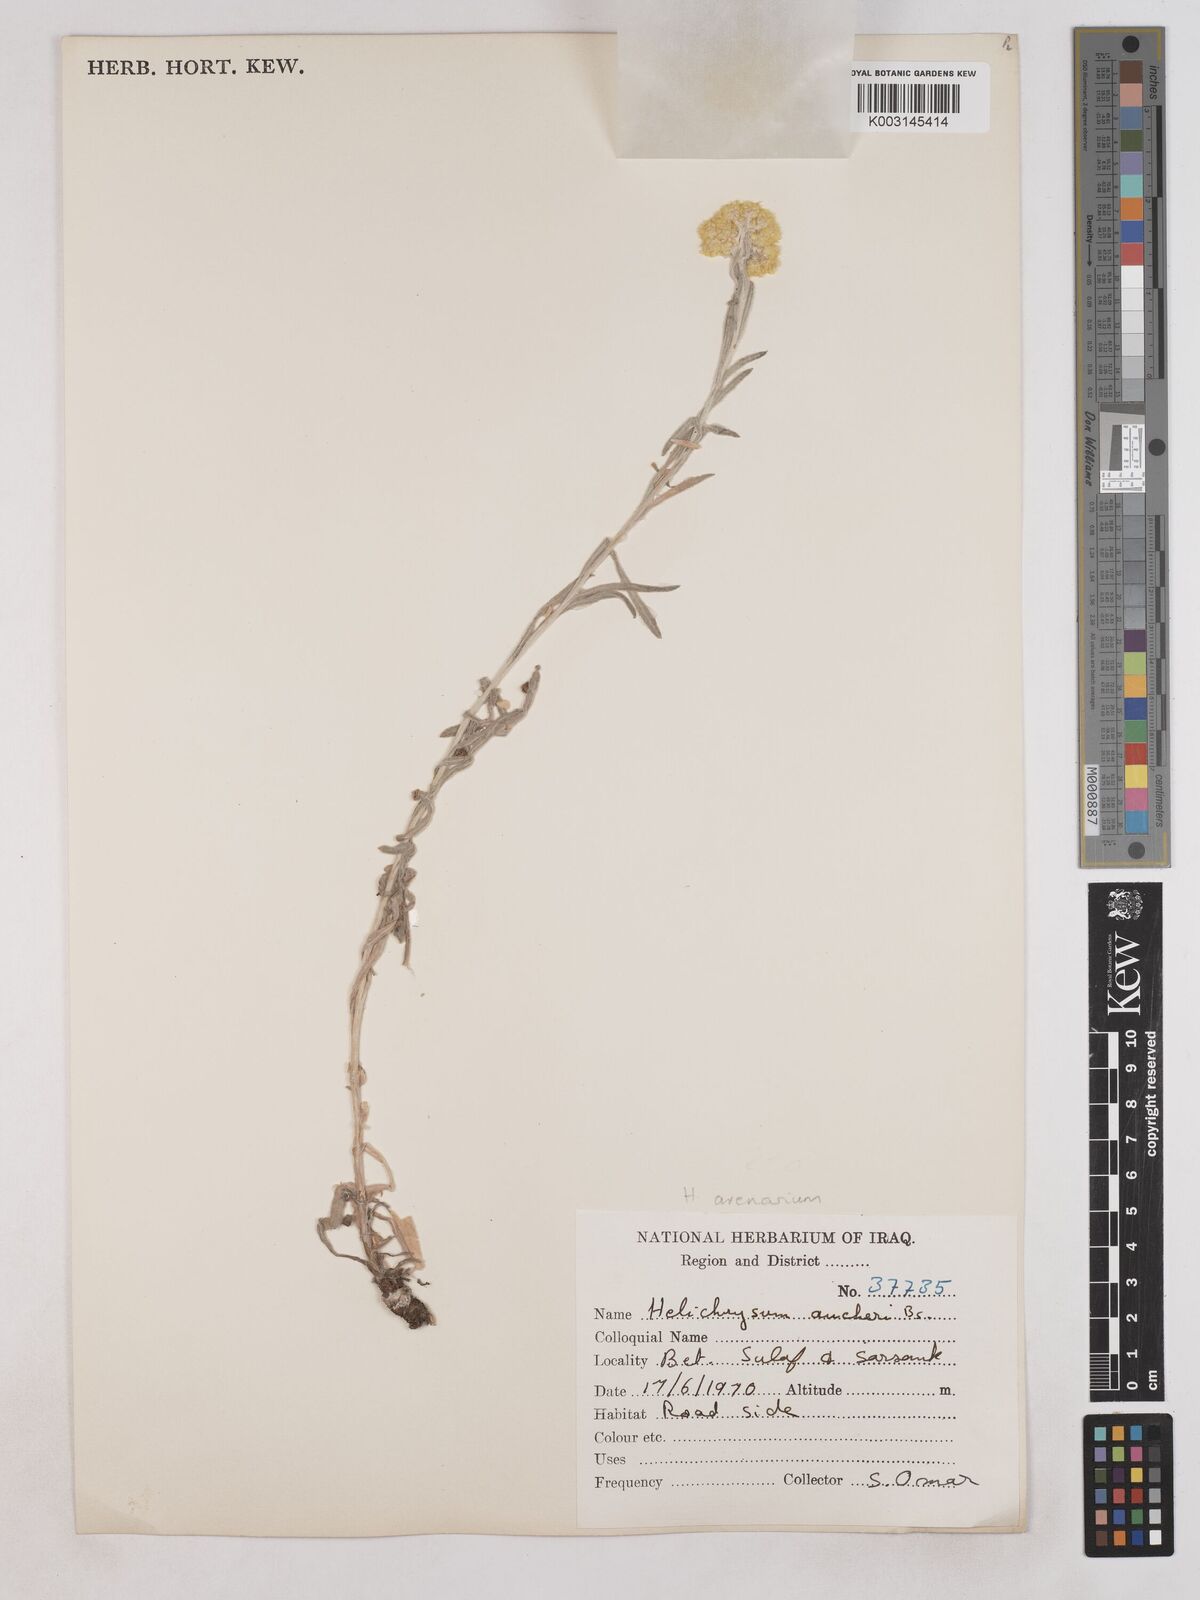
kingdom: Plantae
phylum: Tracheophyta
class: Magnoliopsida
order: Asterales
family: Asteraceae
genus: Helichrysum
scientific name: Helichrysum arenarium
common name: Strawflower
